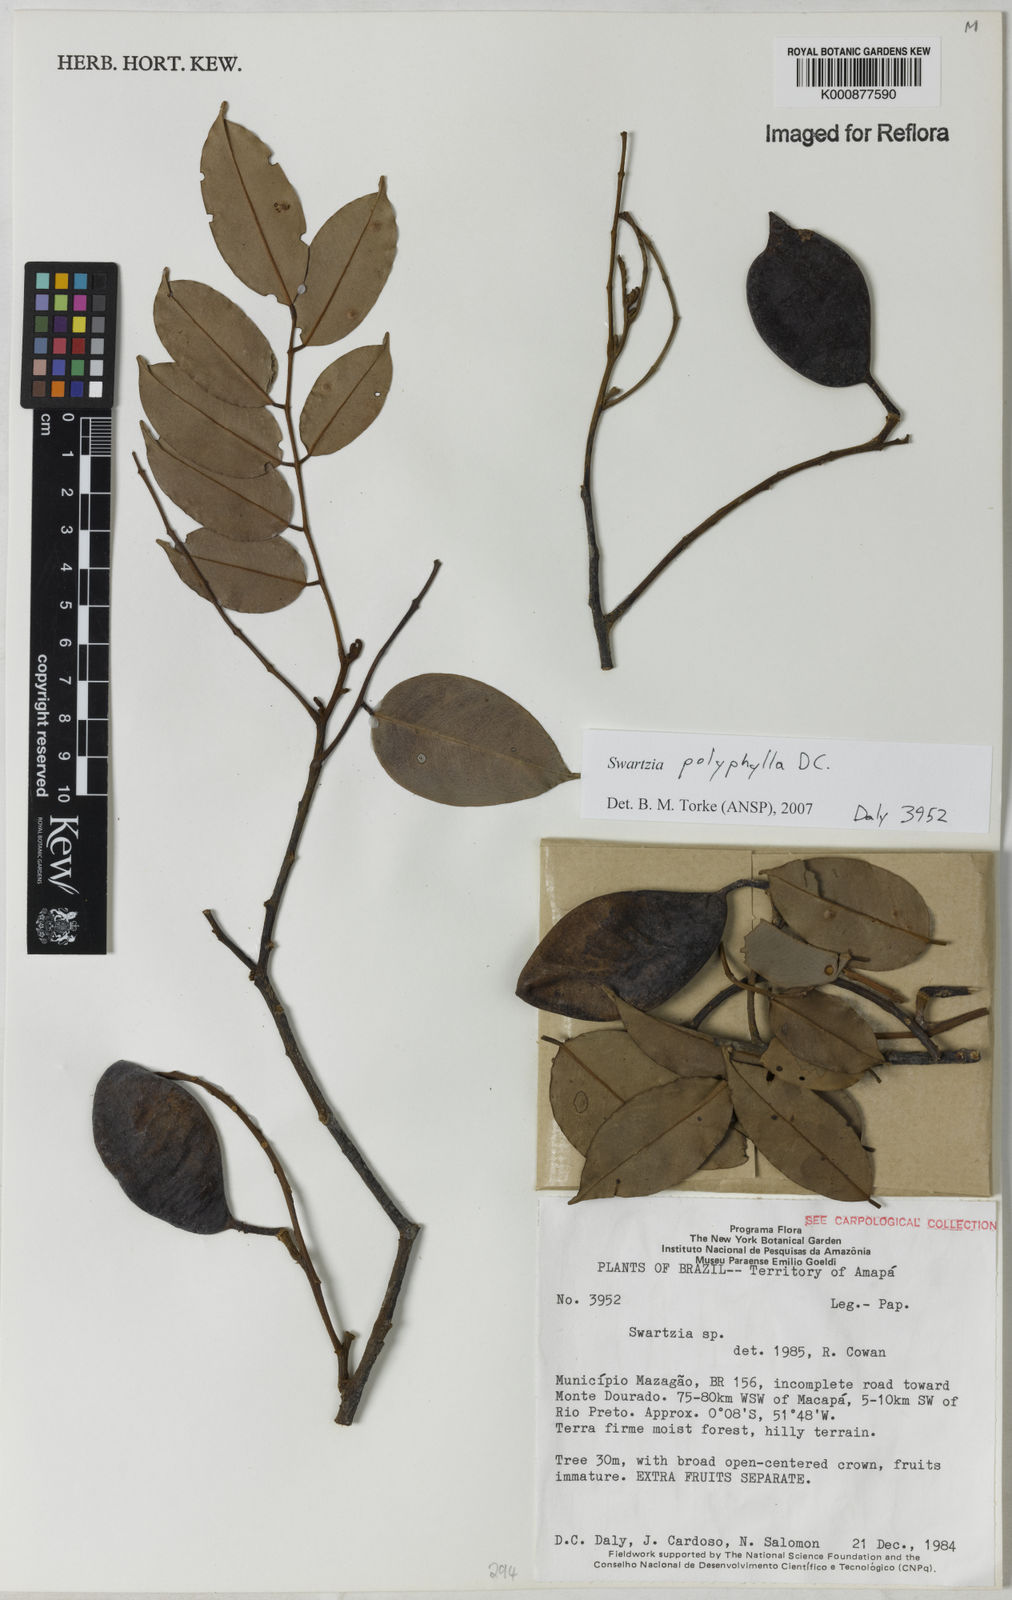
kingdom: Plantae
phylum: Tracheophyta
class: Magnoliopsida
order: Fabales
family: Fabaceae
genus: Swartzia
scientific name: Swartzia polyphylla
